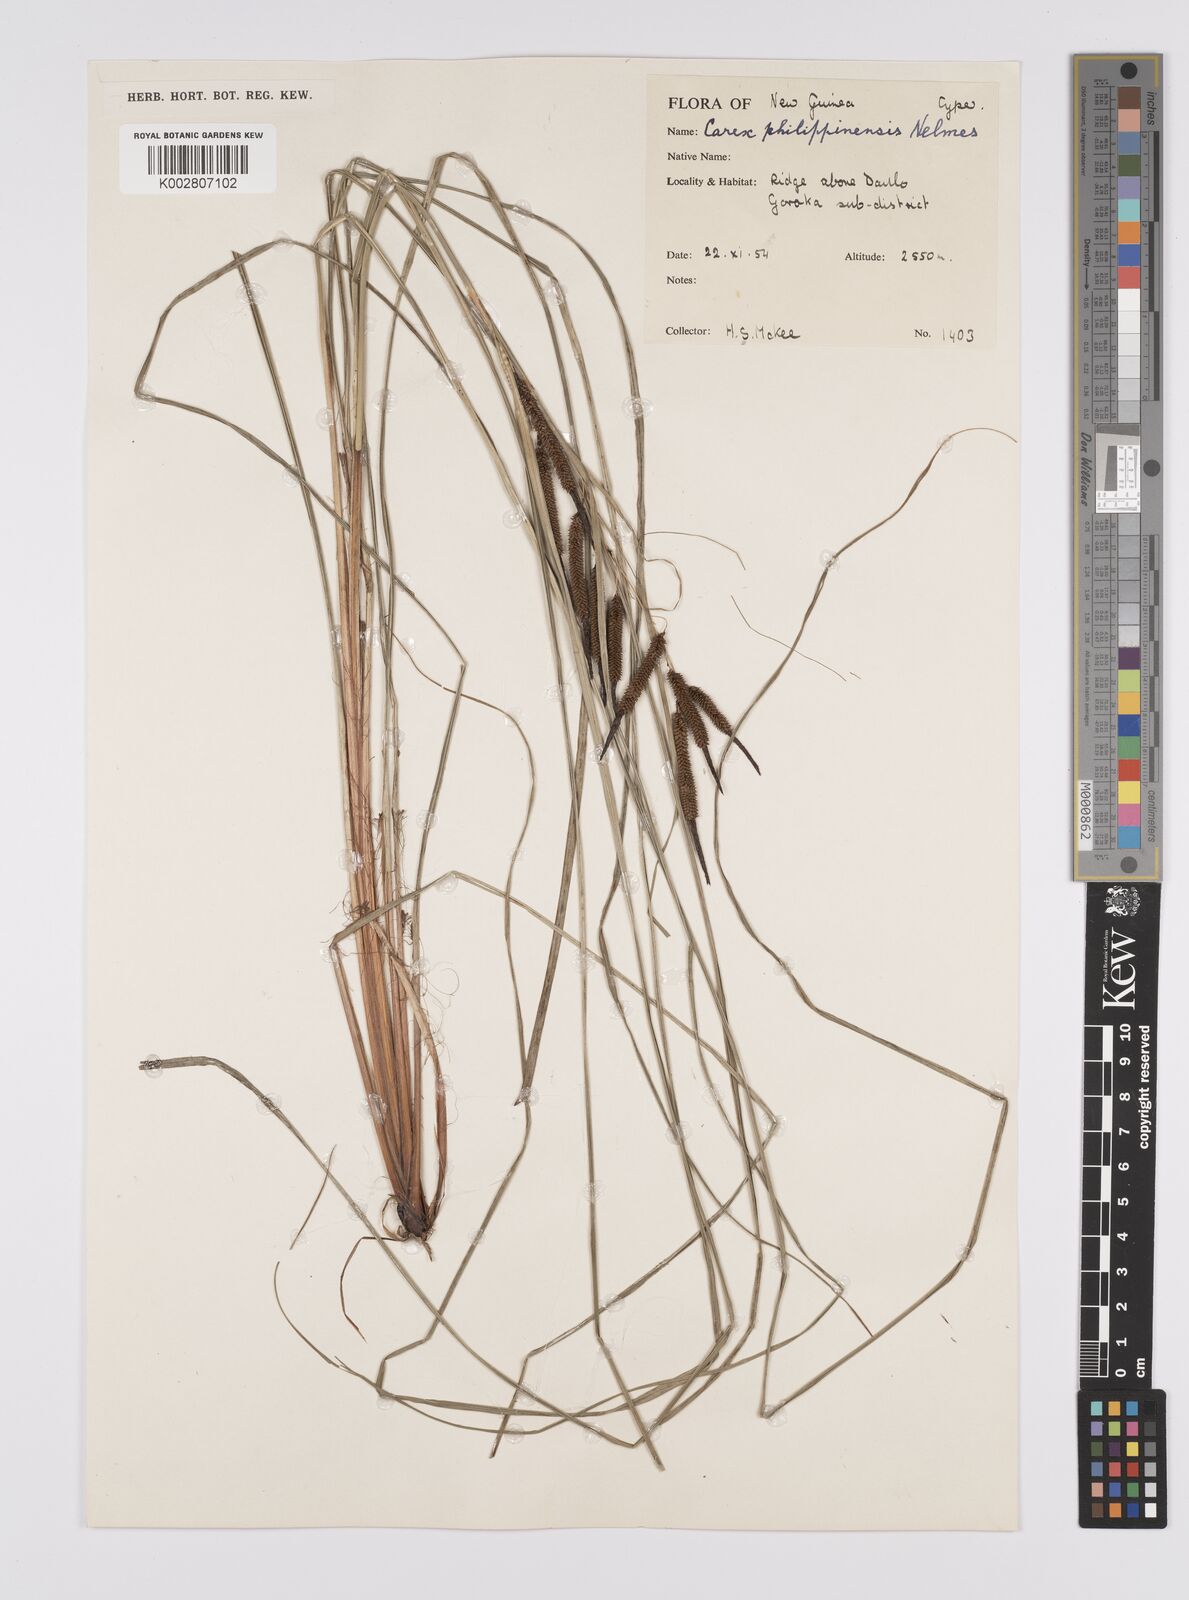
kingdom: Plantae
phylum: Tracheophyta
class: Liliopsida
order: Poales
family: Cyperaceae
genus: Carex
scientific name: Carex graeffeana
